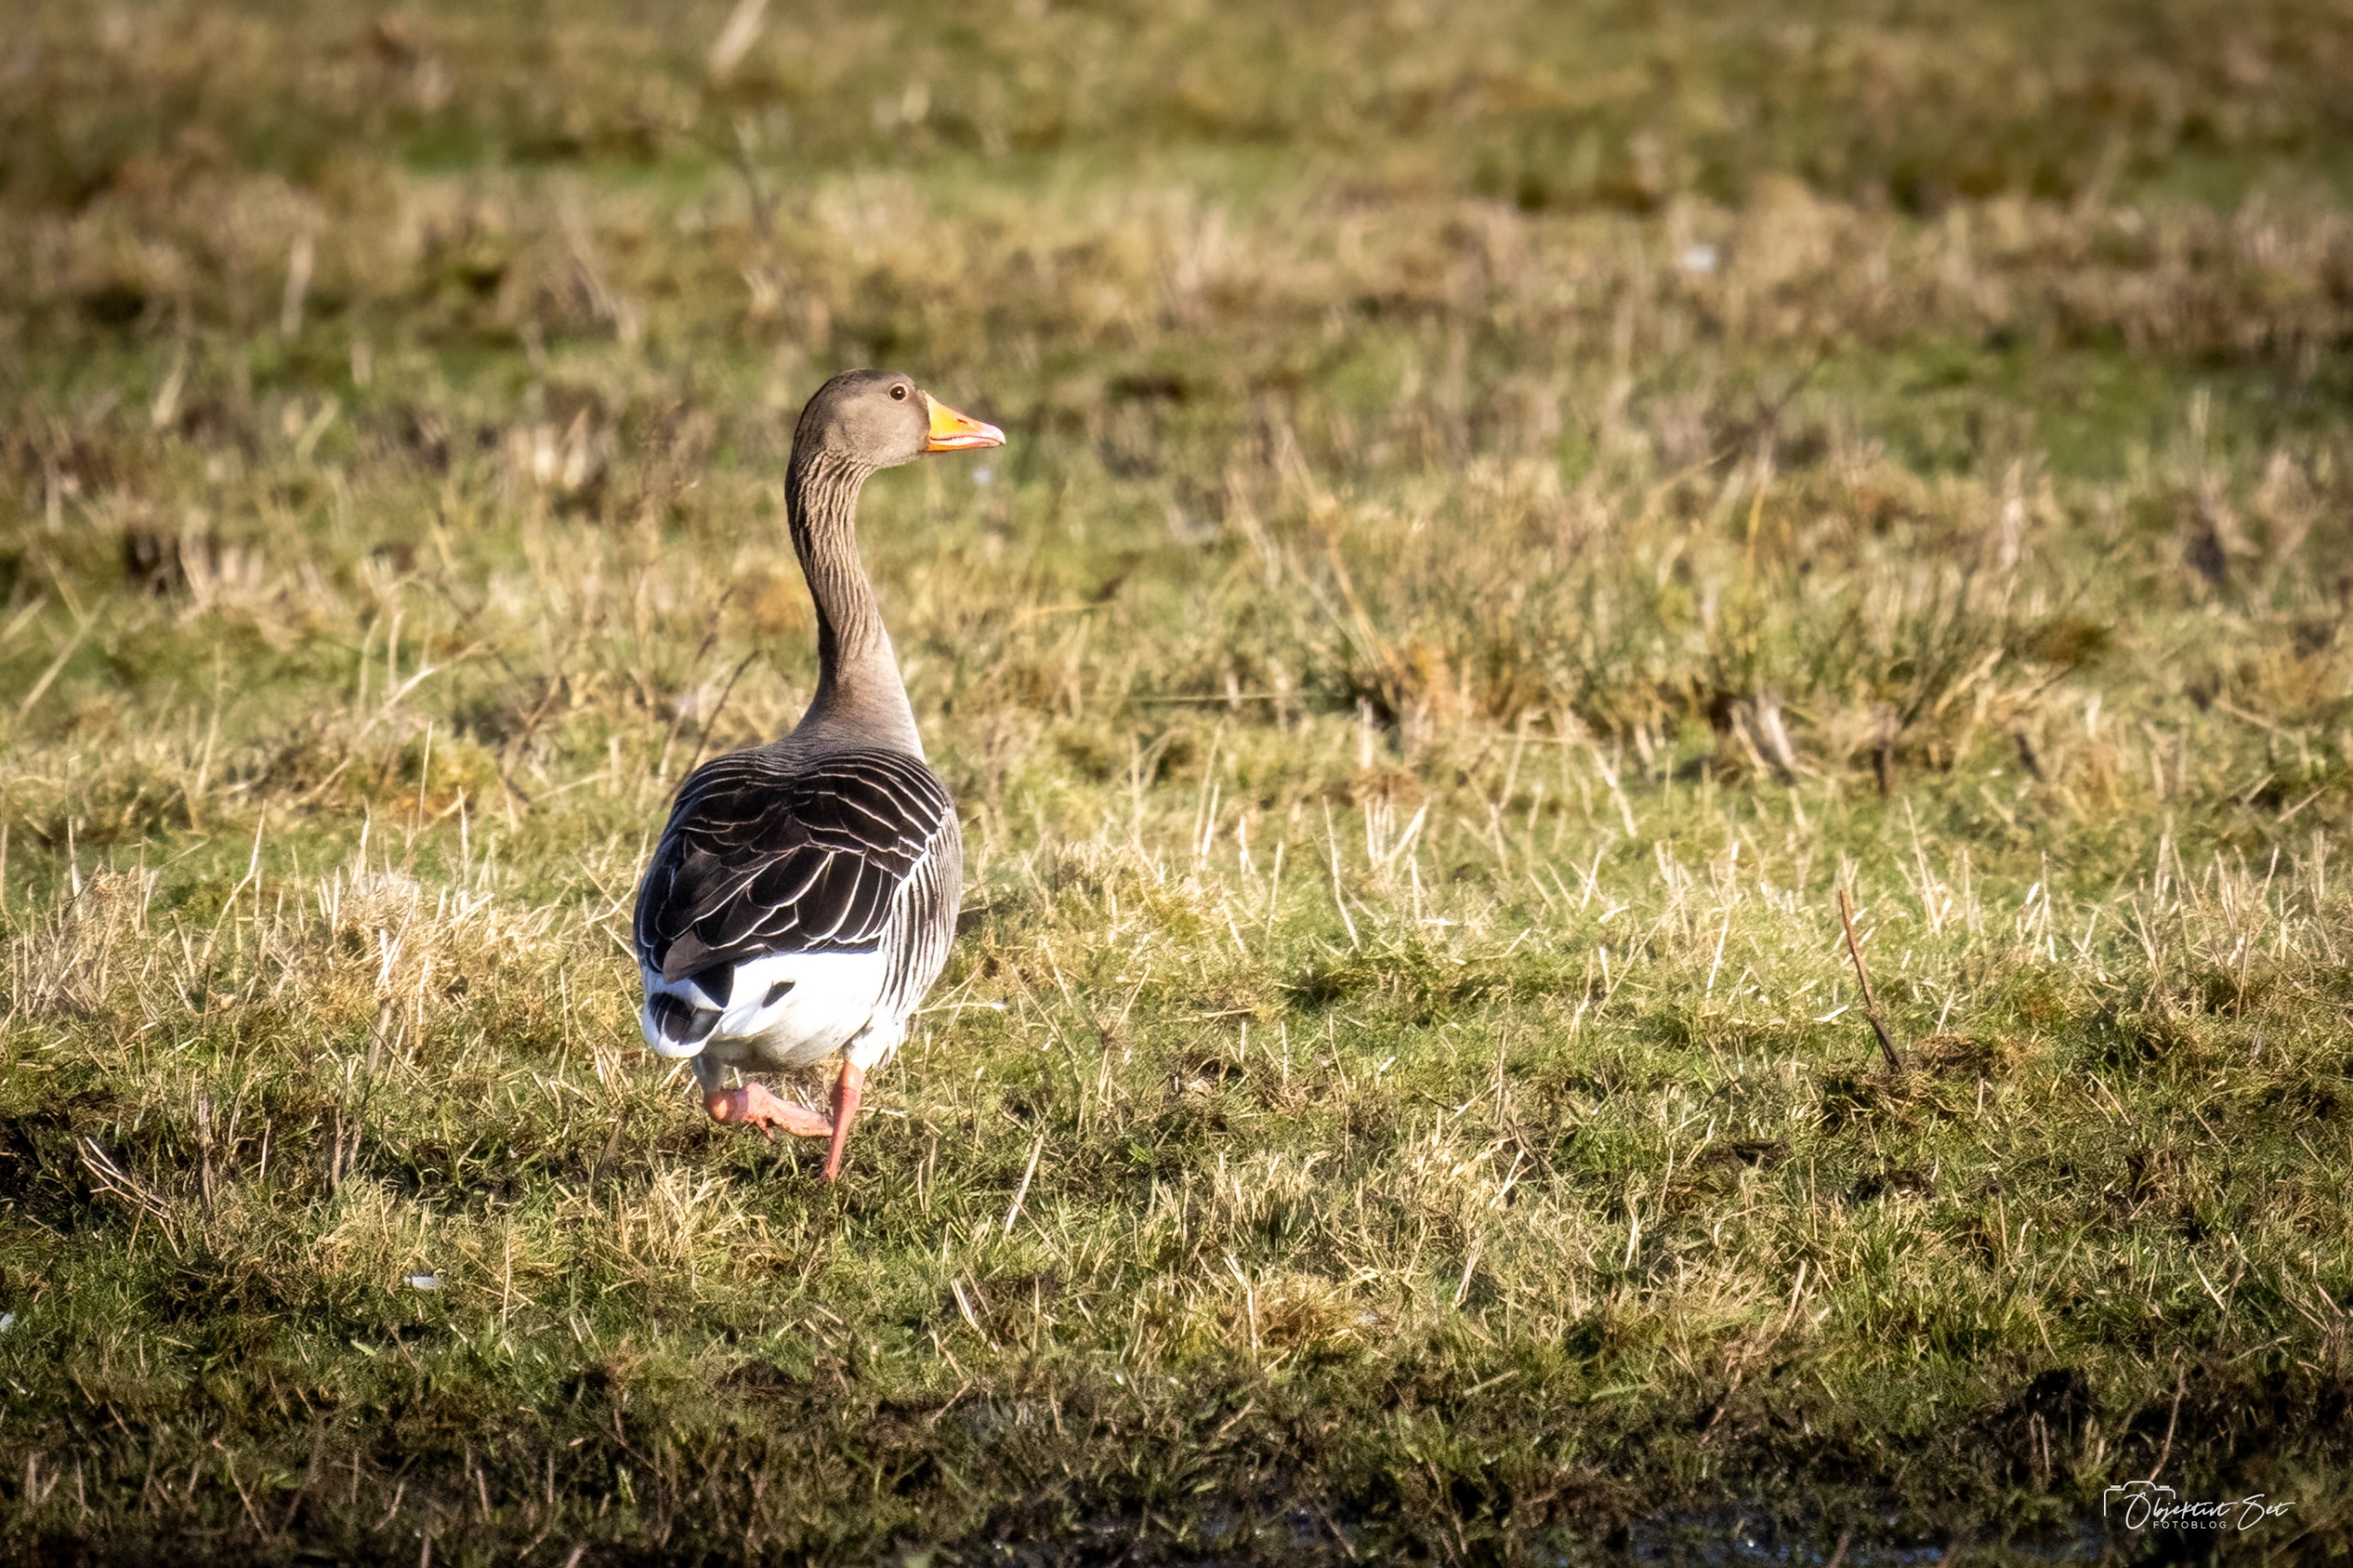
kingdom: Animalia
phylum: Chordata
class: Aves
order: Anseriformes
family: Anatidae
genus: Anser
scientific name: Anser anser
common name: Grågås
